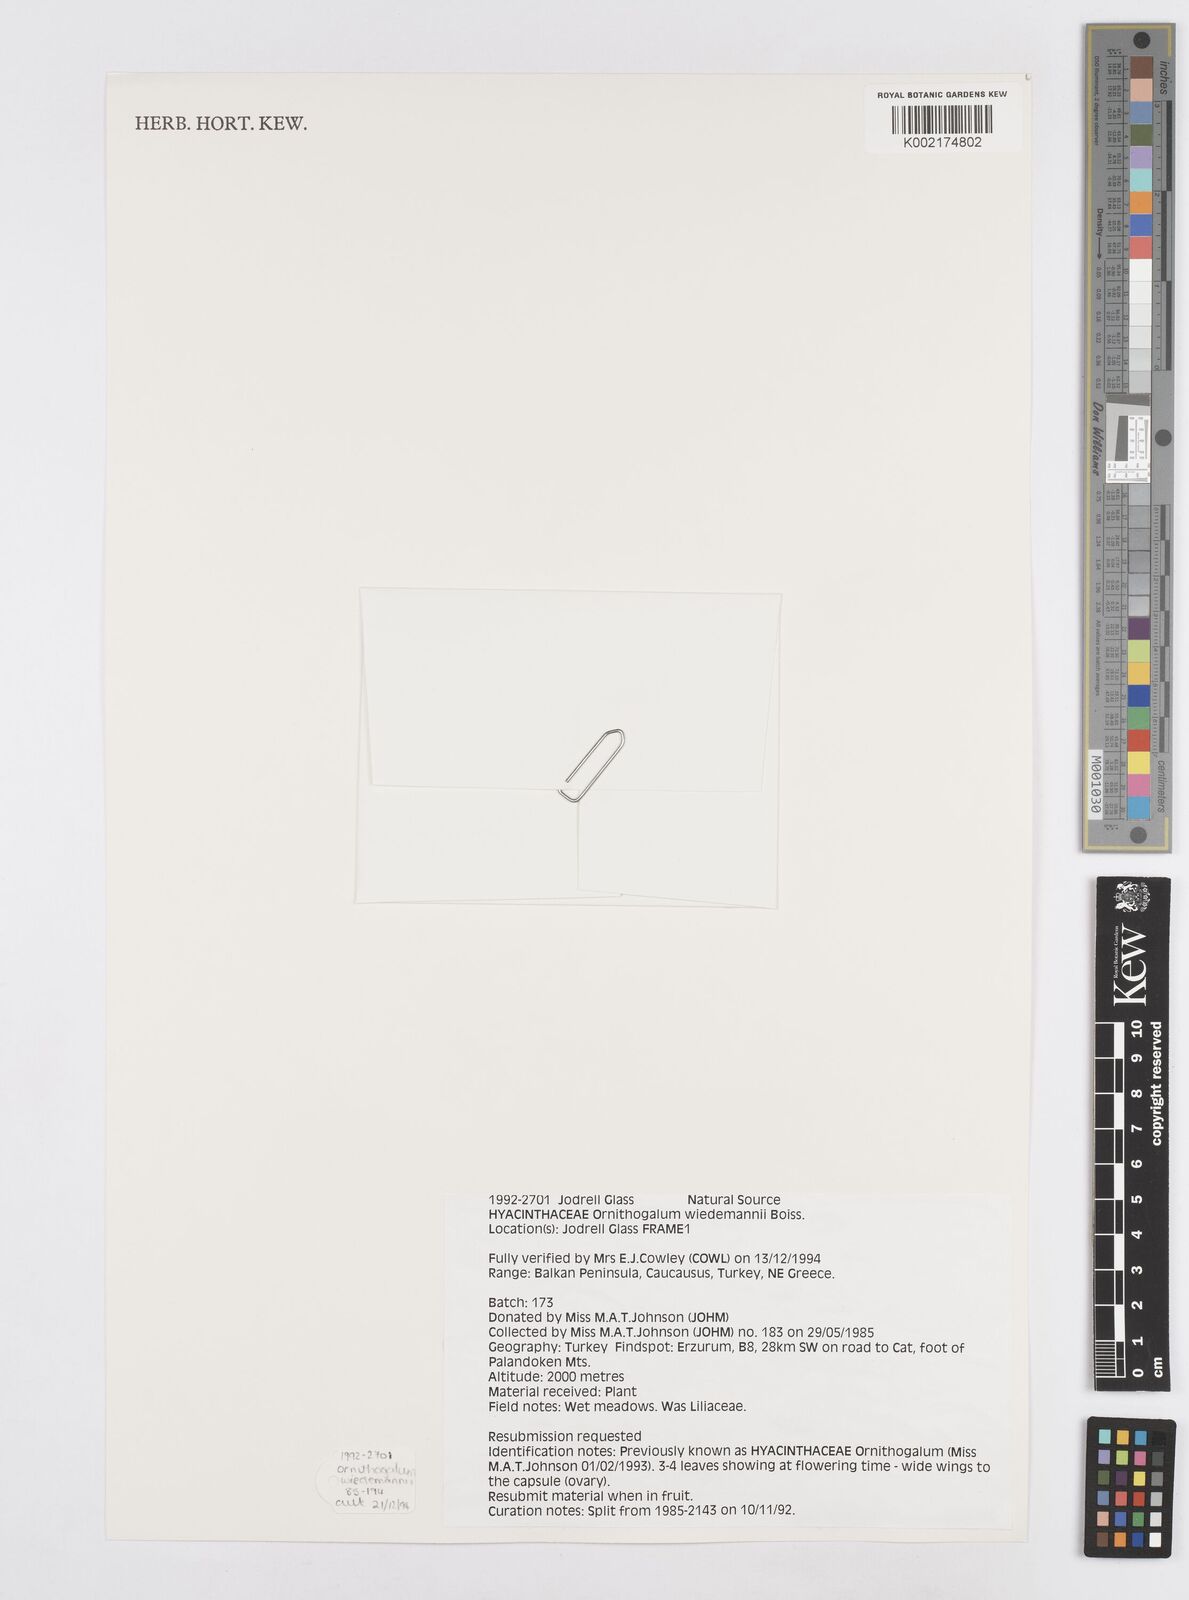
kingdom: Plantae
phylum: Tracheophyta
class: Liliopsida
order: Asparagales
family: Asparagaceae
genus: Ornithogalum
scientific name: Ornithogalum wiedemannii
